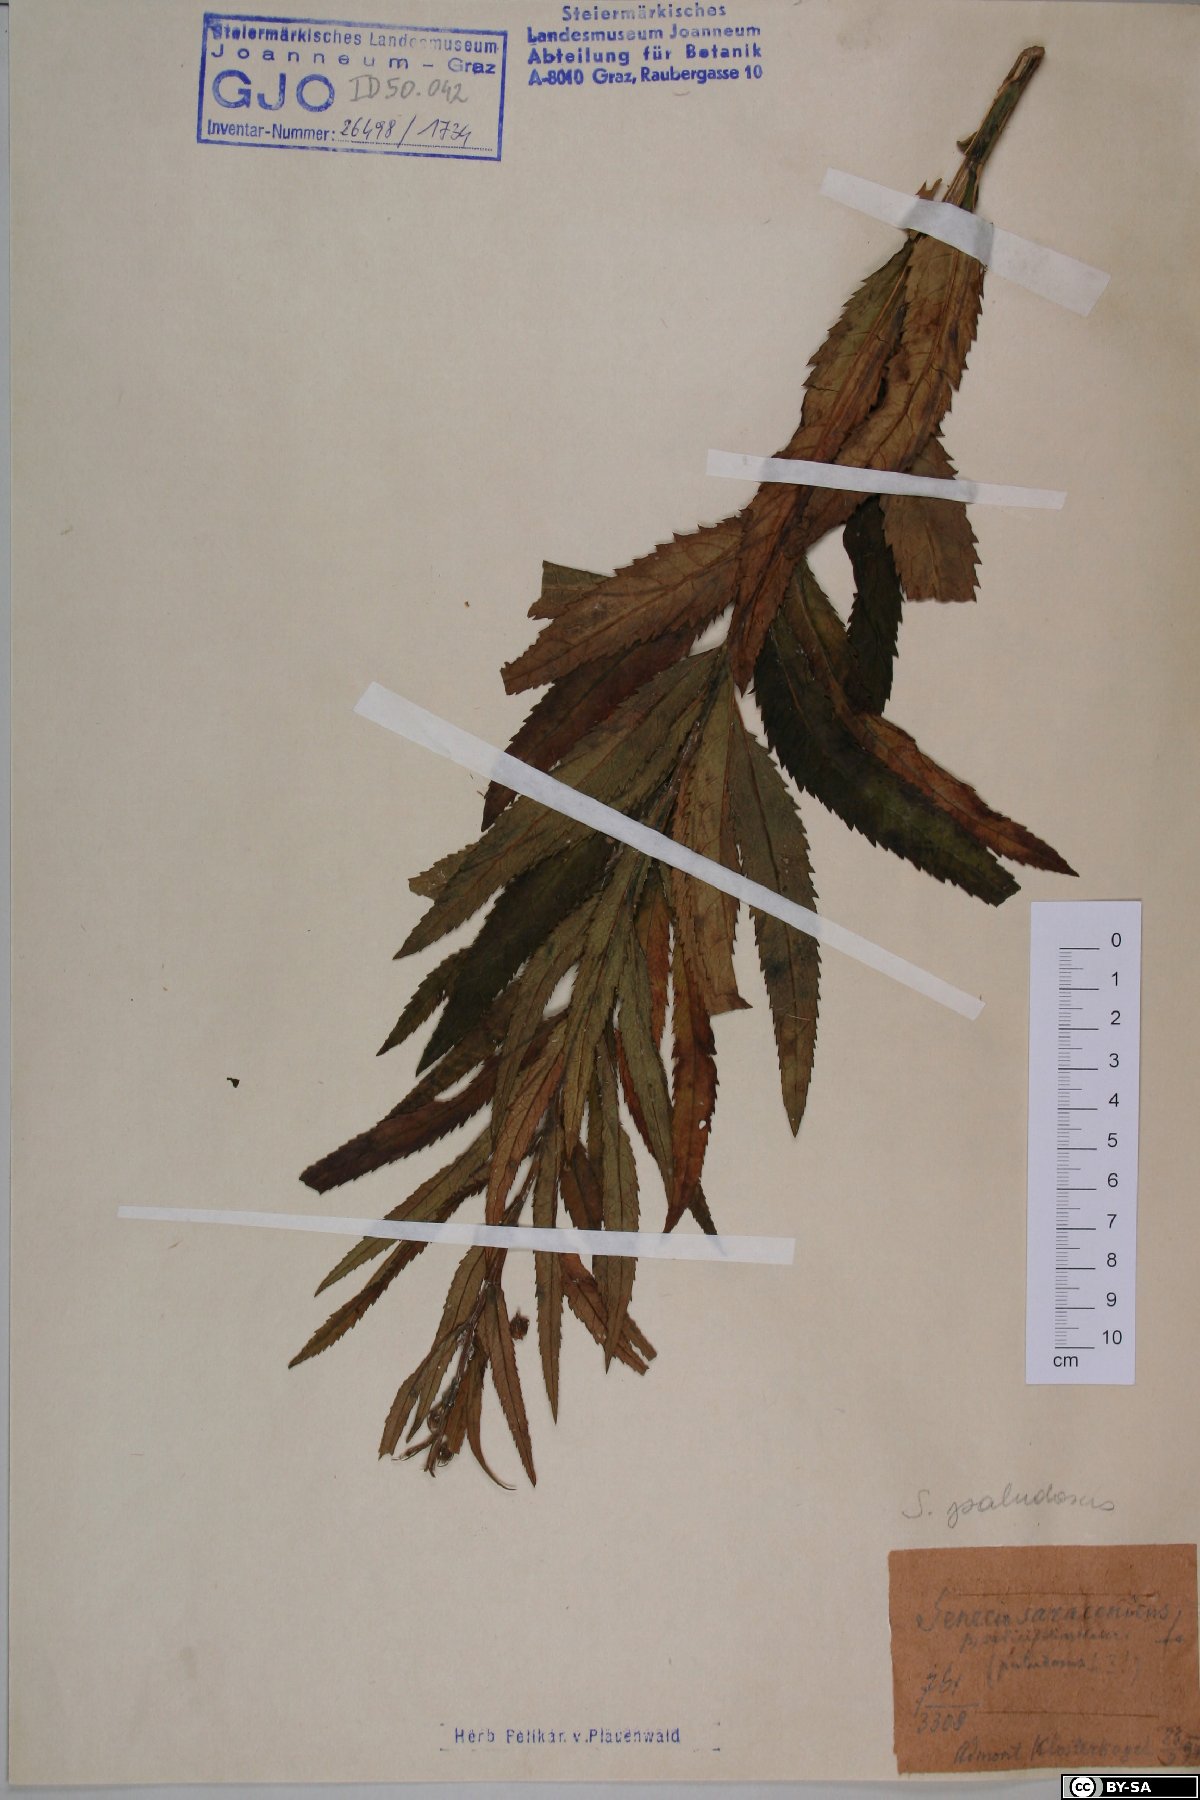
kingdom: Plantae
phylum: Tracheophyta
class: Magnoliopsida
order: Asterales
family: Asteraceae
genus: Jacobaea
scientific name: Jacobaea paludosa
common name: Fen ragwort
